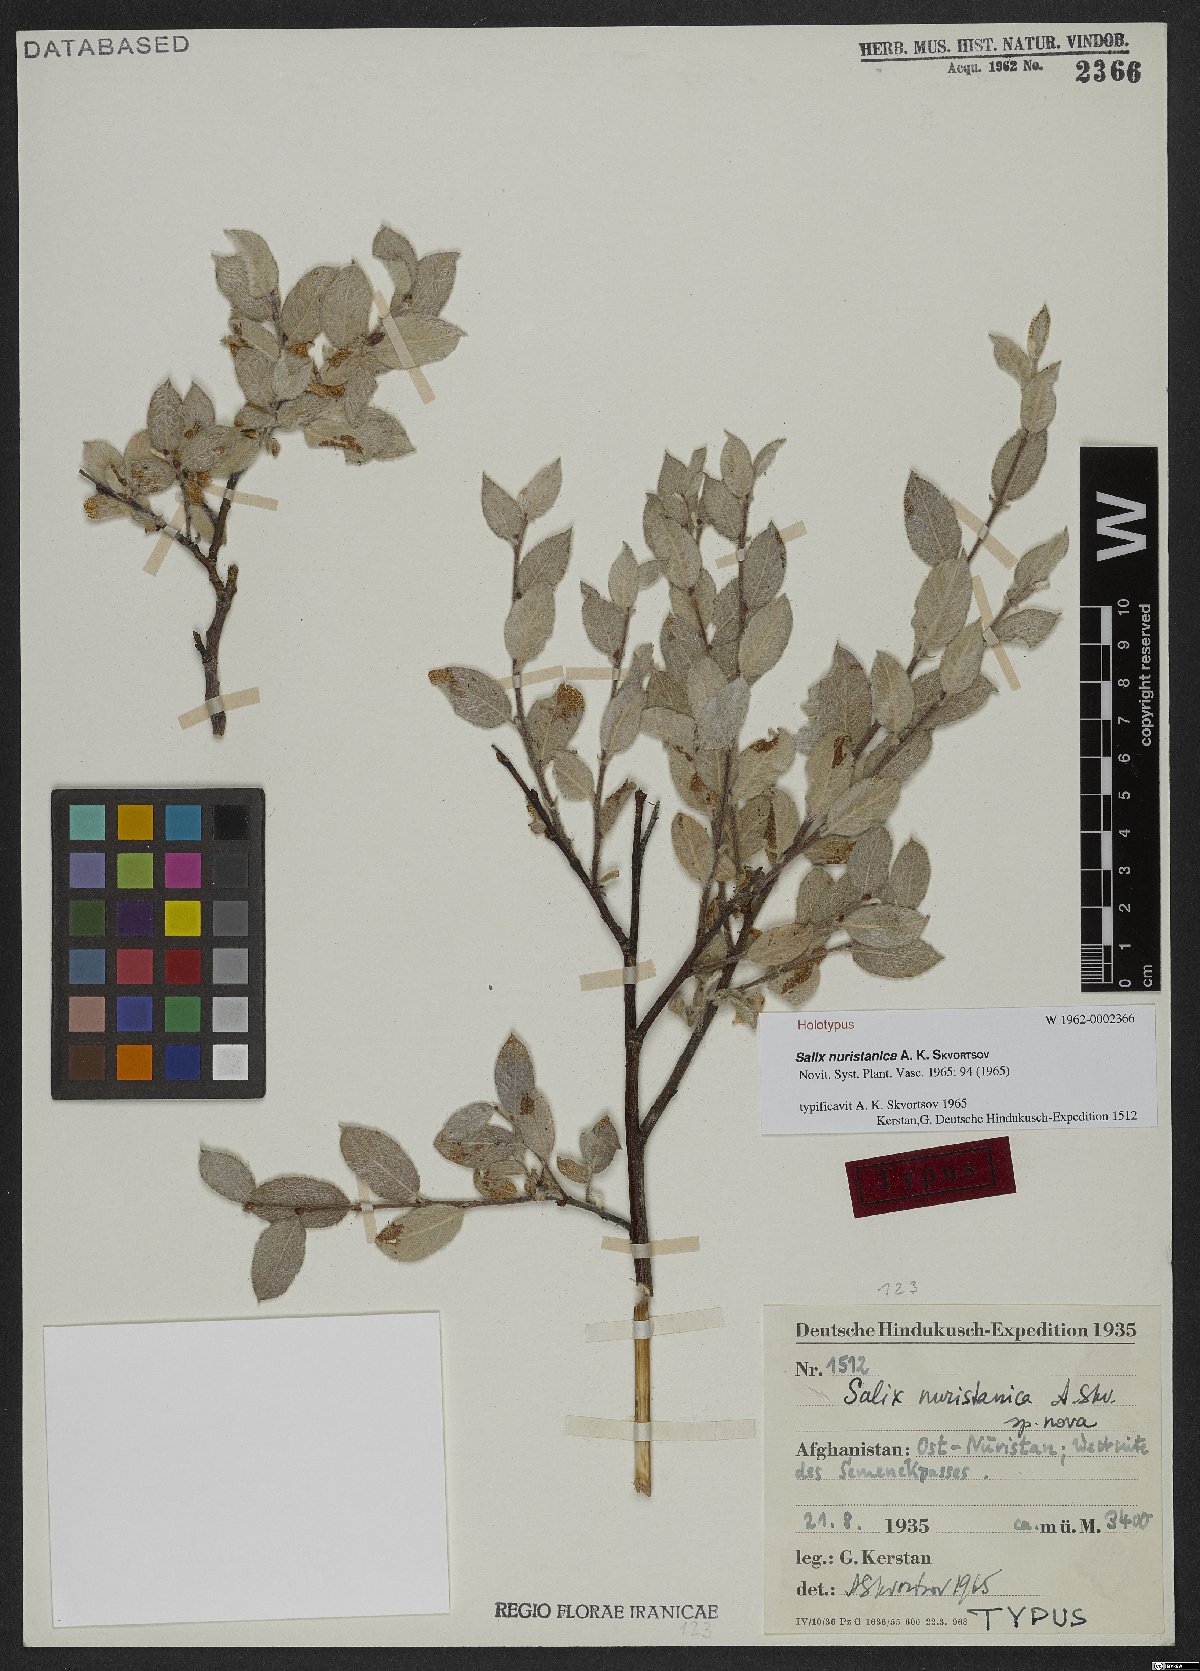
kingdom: Plantae
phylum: Tracheophyta
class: Magnoliopsida
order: Malpighiales
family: Salicaceae
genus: Salix
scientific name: Salix nuristanica
